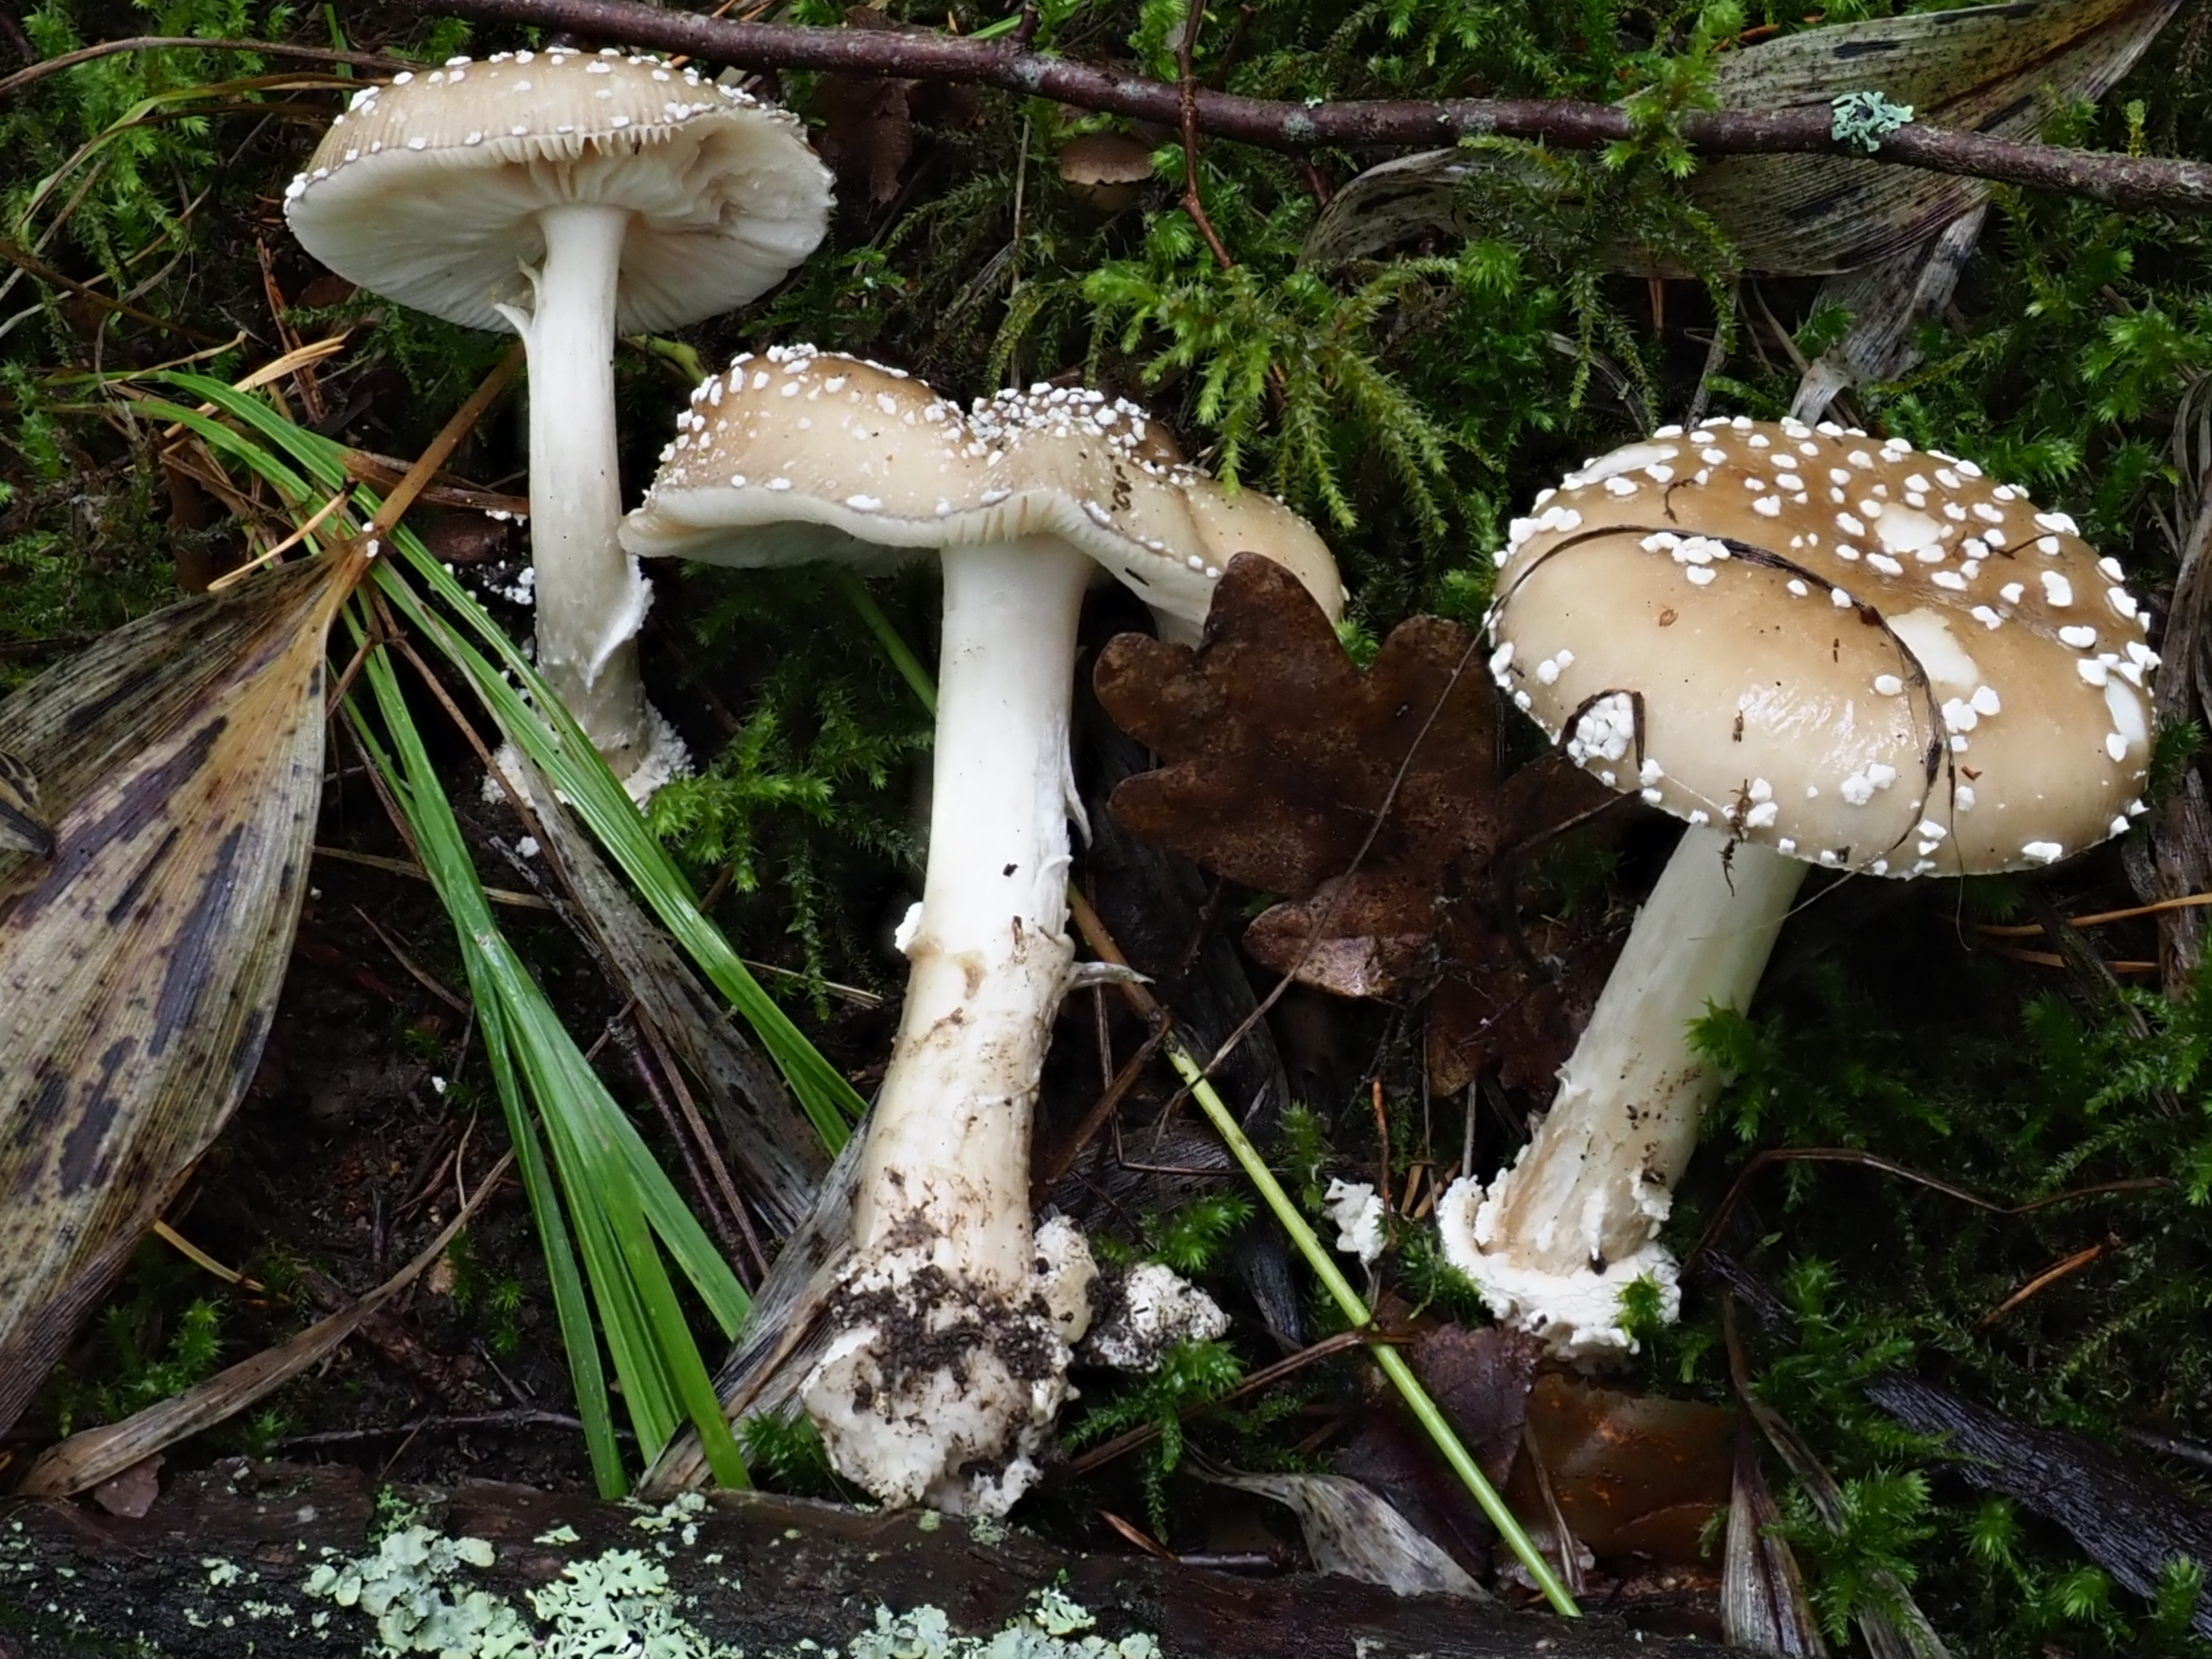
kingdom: Fungi
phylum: Basidiomycota
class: Agaricomycetes
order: Agaricales
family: Amanitaceae
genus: Amanita
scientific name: Amanita pantherina
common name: Panthercap
